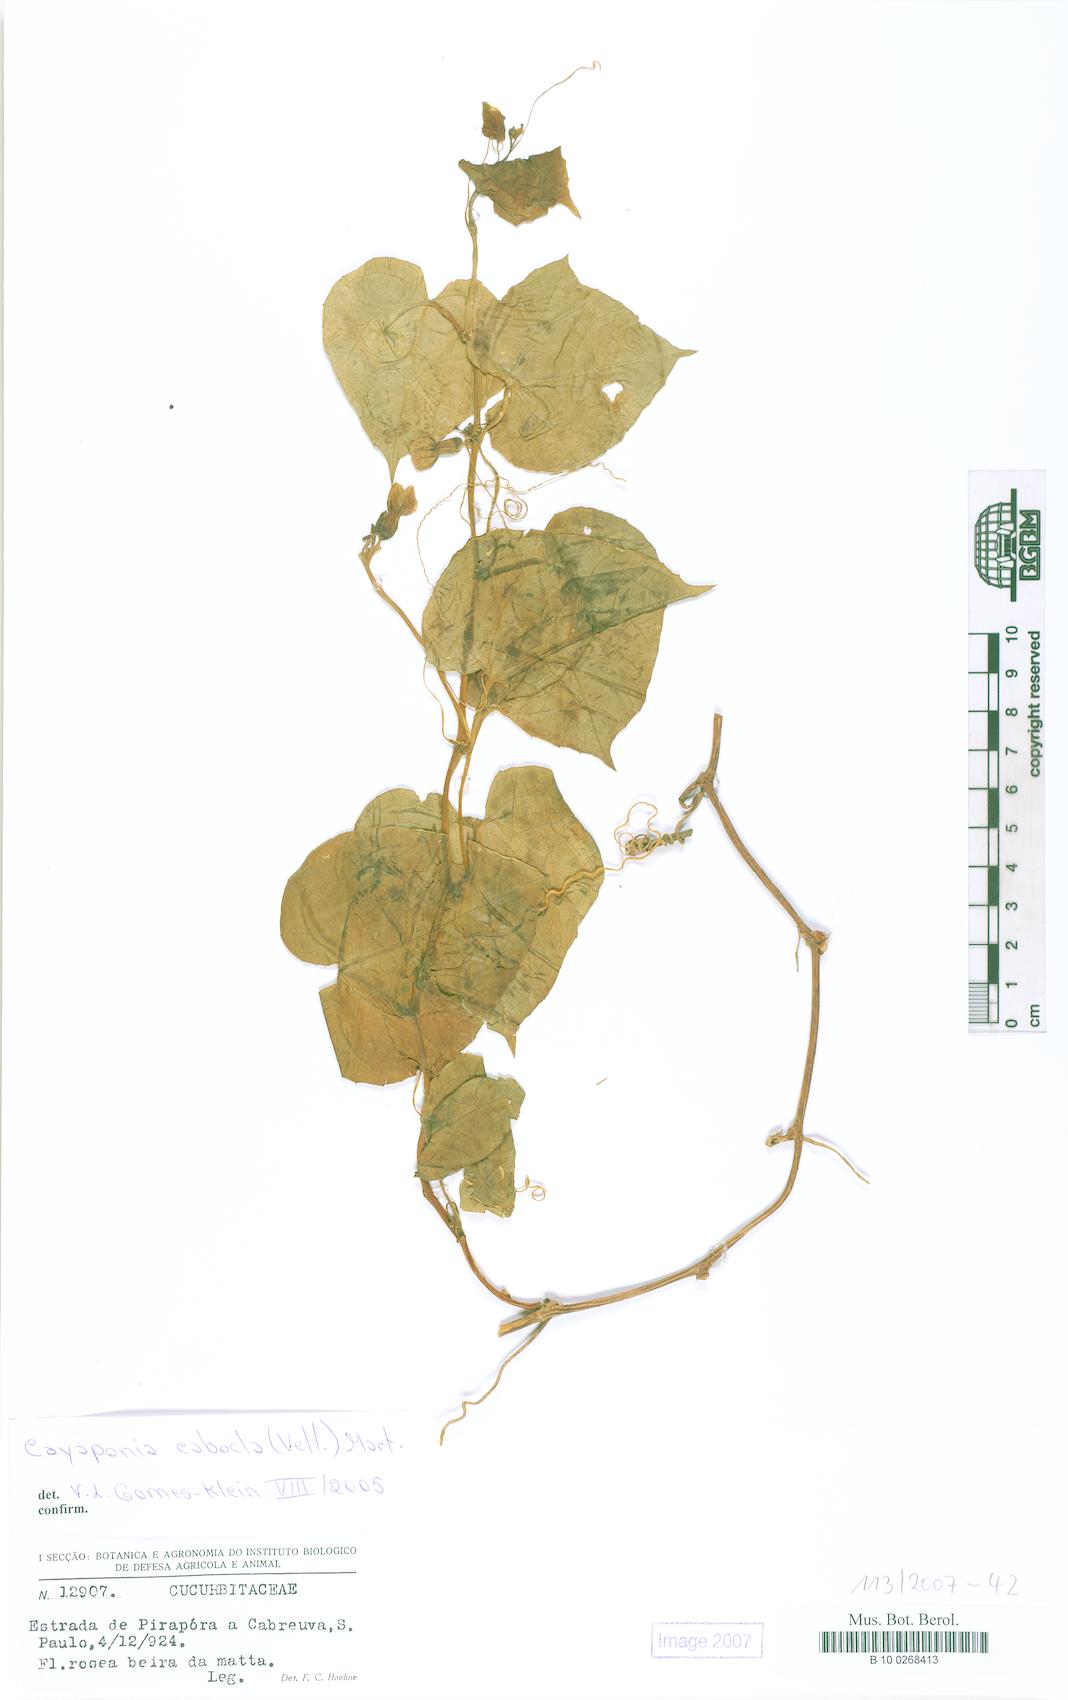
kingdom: Plantae
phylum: Tracheophyta
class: Magnoliopsida
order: Cucurbitales
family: Cucurbitaceae
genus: Cayaponia
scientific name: Cayaponia cabocla
